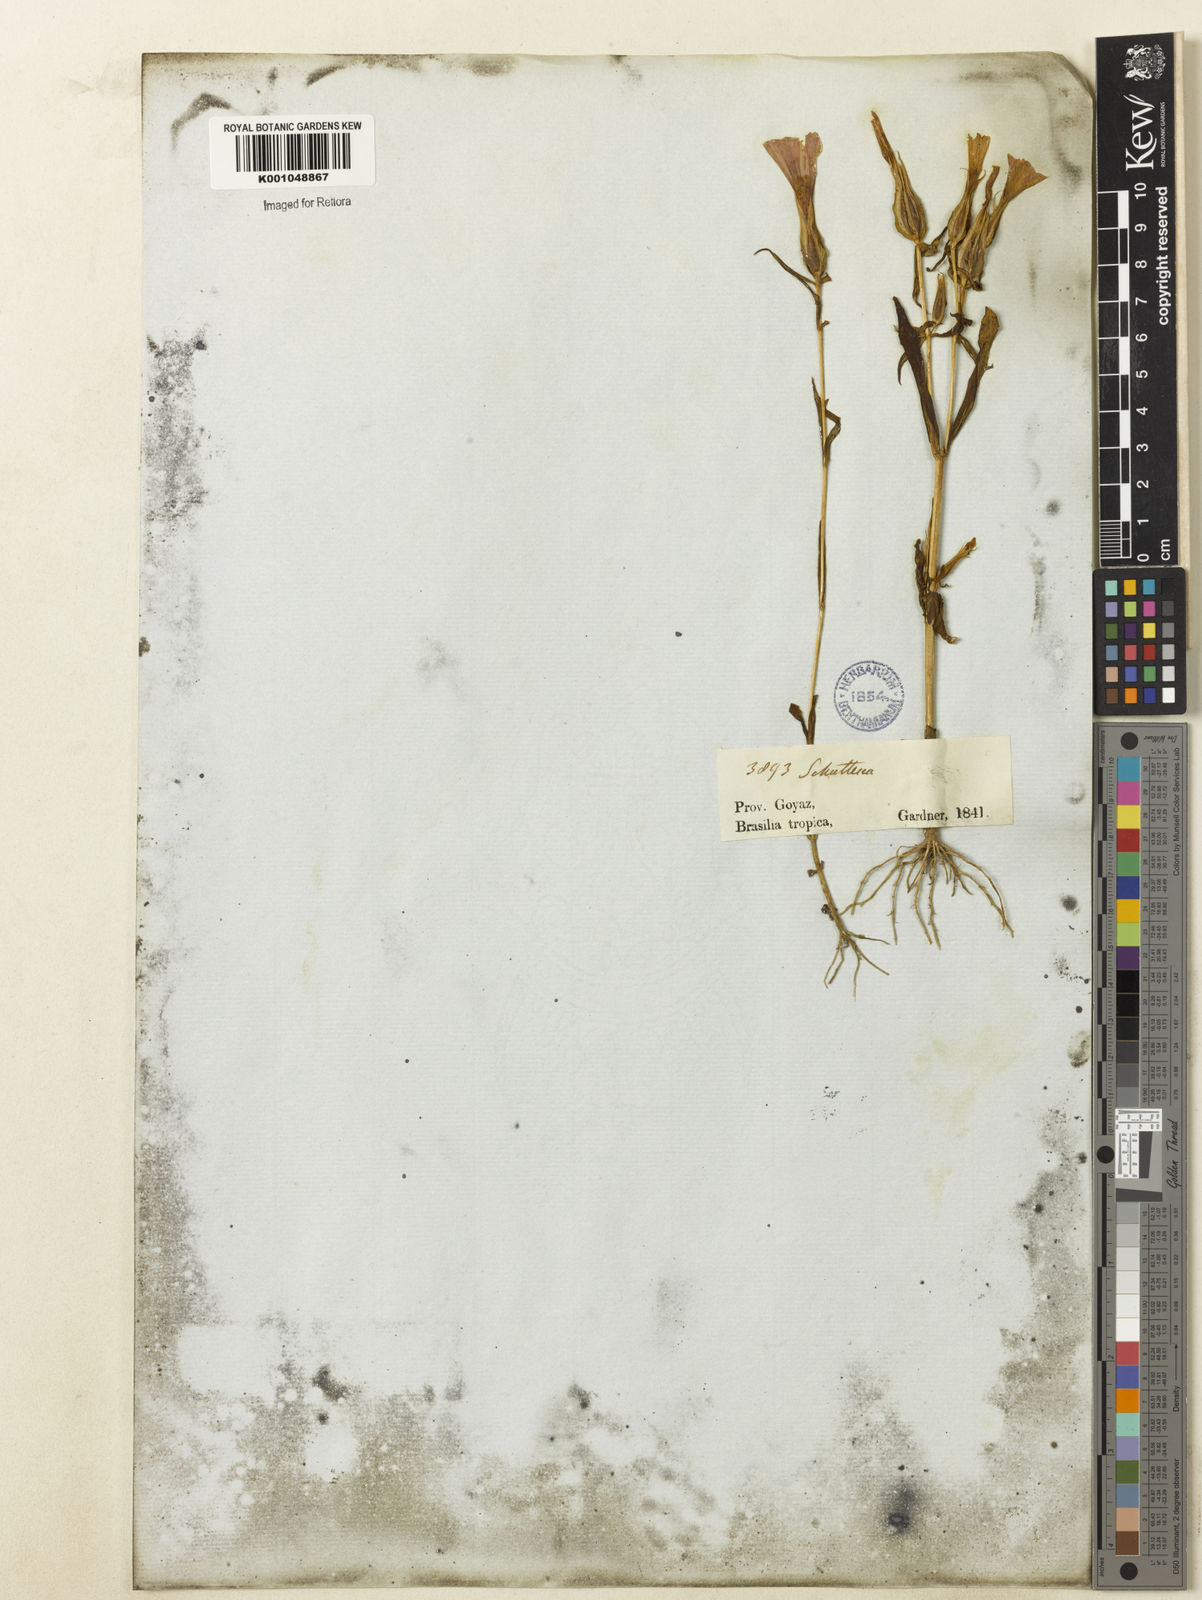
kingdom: Plantae
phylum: Tracheophyta
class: Magnoliopsida
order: Gentianales
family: Gentianaceae
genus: Schultesia
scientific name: Schultesia brachyptera
